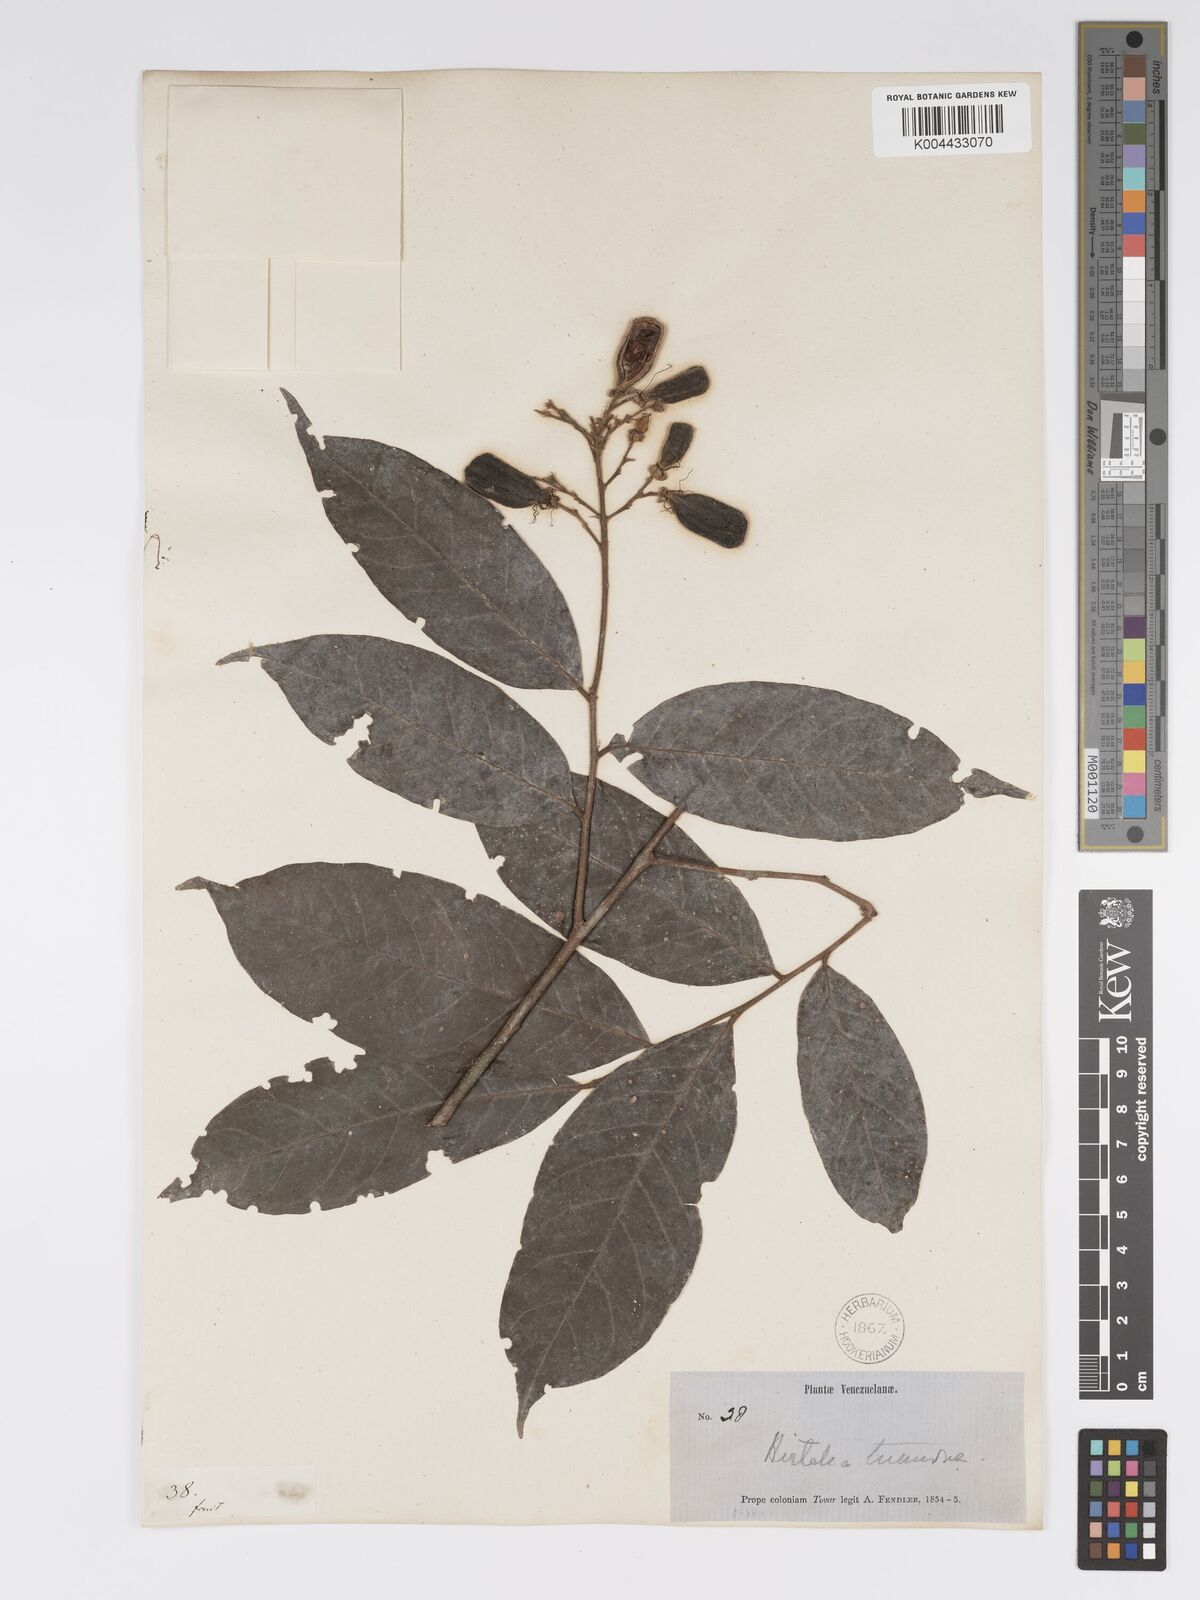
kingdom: Plantae
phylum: Tracheophyta
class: Magnoliopsida
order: Malpighiales
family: Chrysobalanaceae
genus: Hirtella
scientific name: Hirtella triandra
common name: Hairy plum
